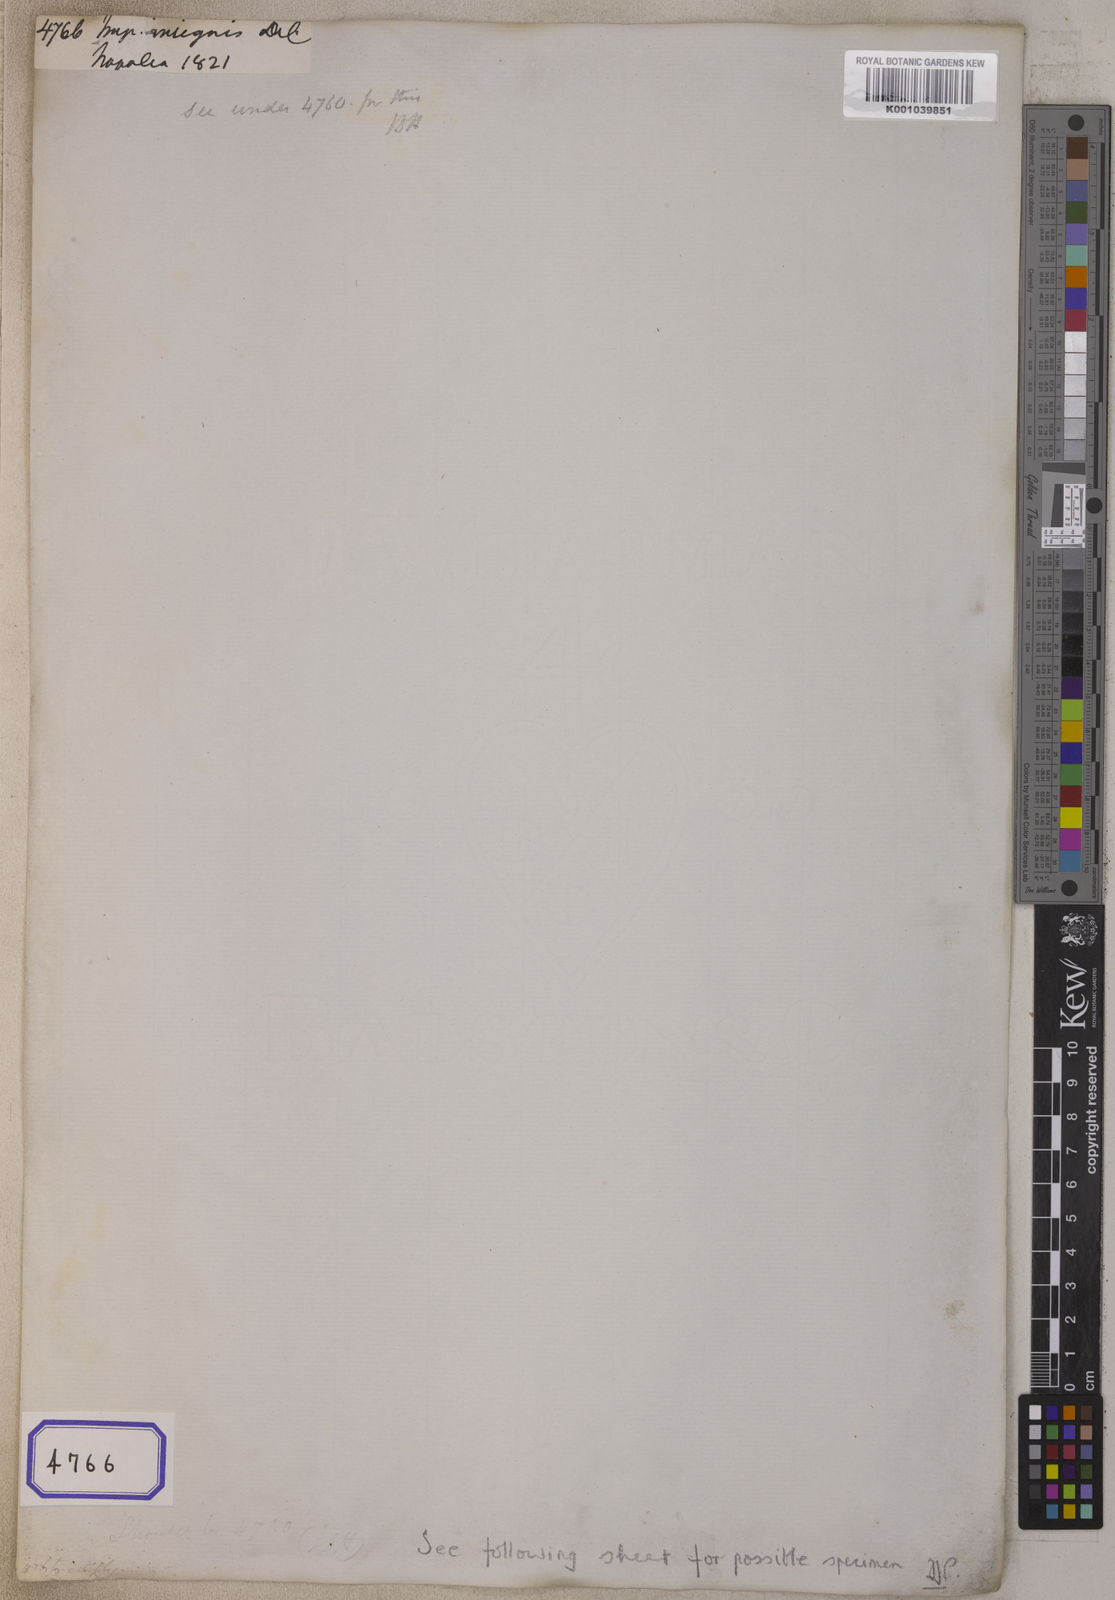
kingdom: Plantae
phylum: Tracheophyta
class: Magnoliopsida
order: Ericales
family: Balsaminaceae
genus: Impatiens
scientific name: Impatiens insignis
